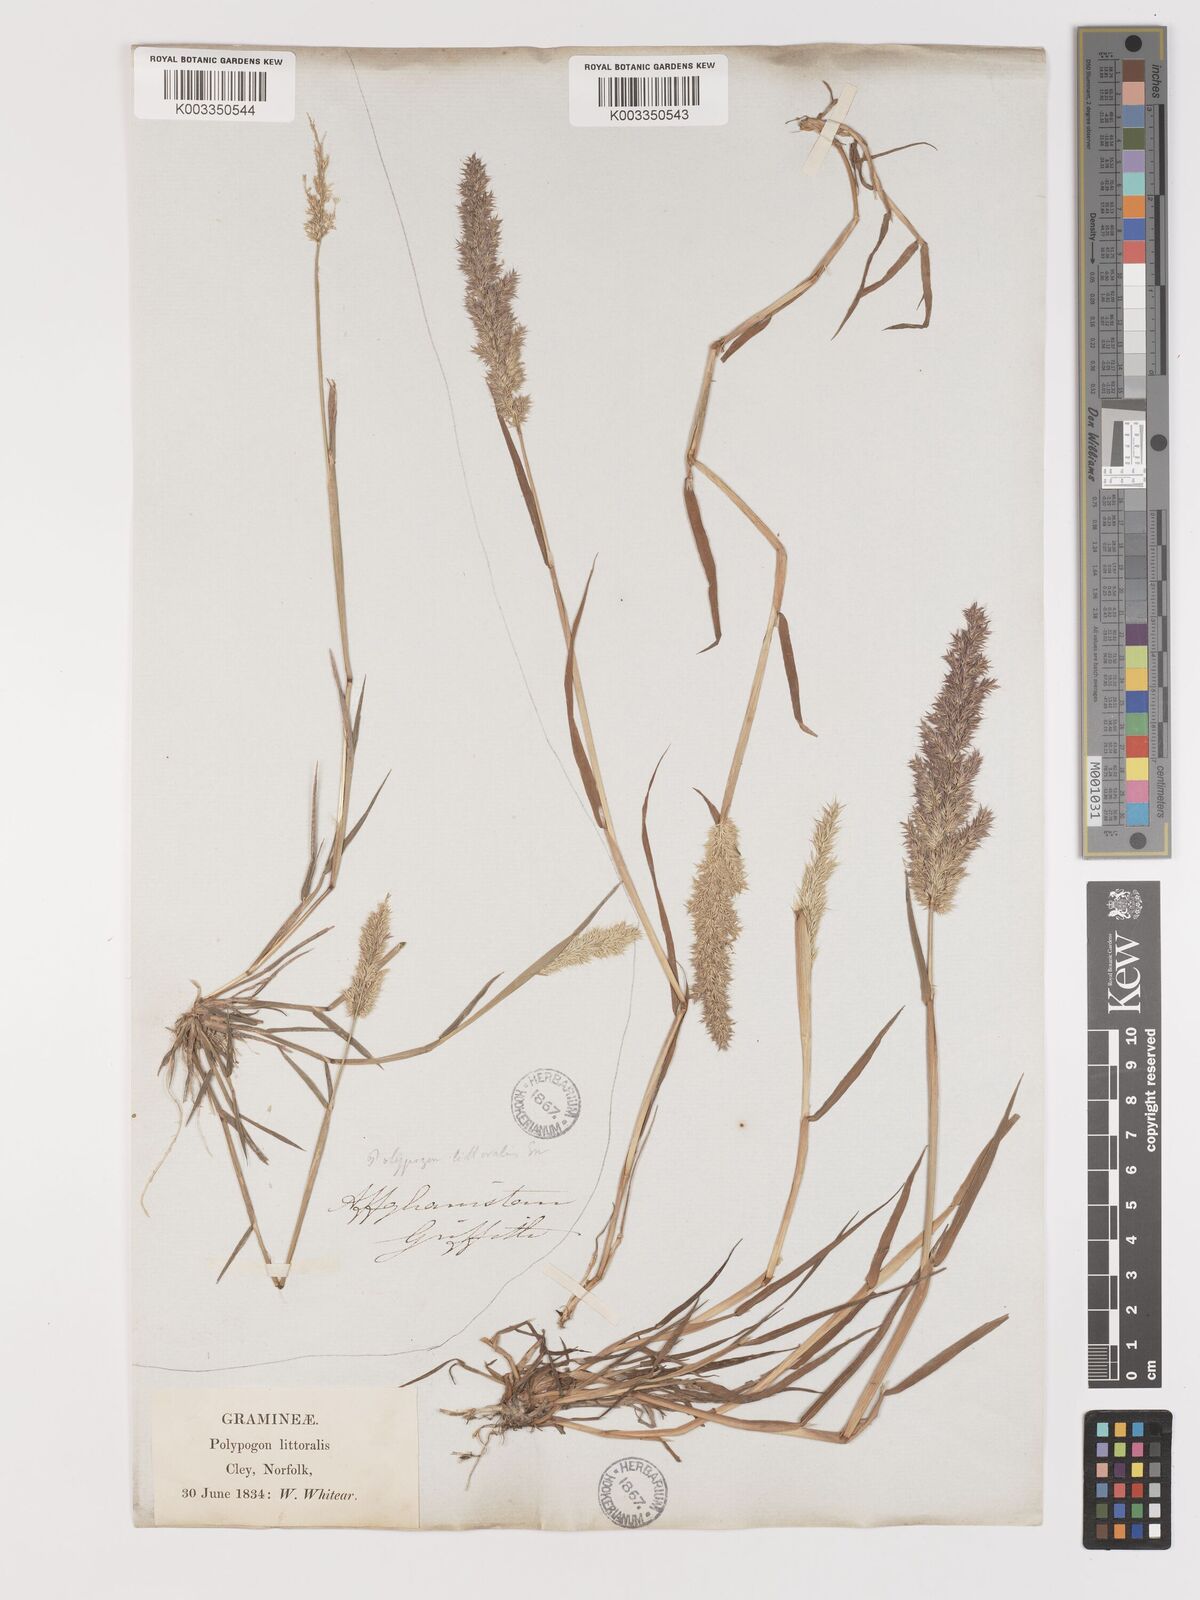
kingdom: Plantae
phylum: Tracheophyta
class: Liliopsida
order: Poales
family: Poaceae
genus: Agropogon
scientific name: Agropogon lutosus
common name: Coast agropogon
